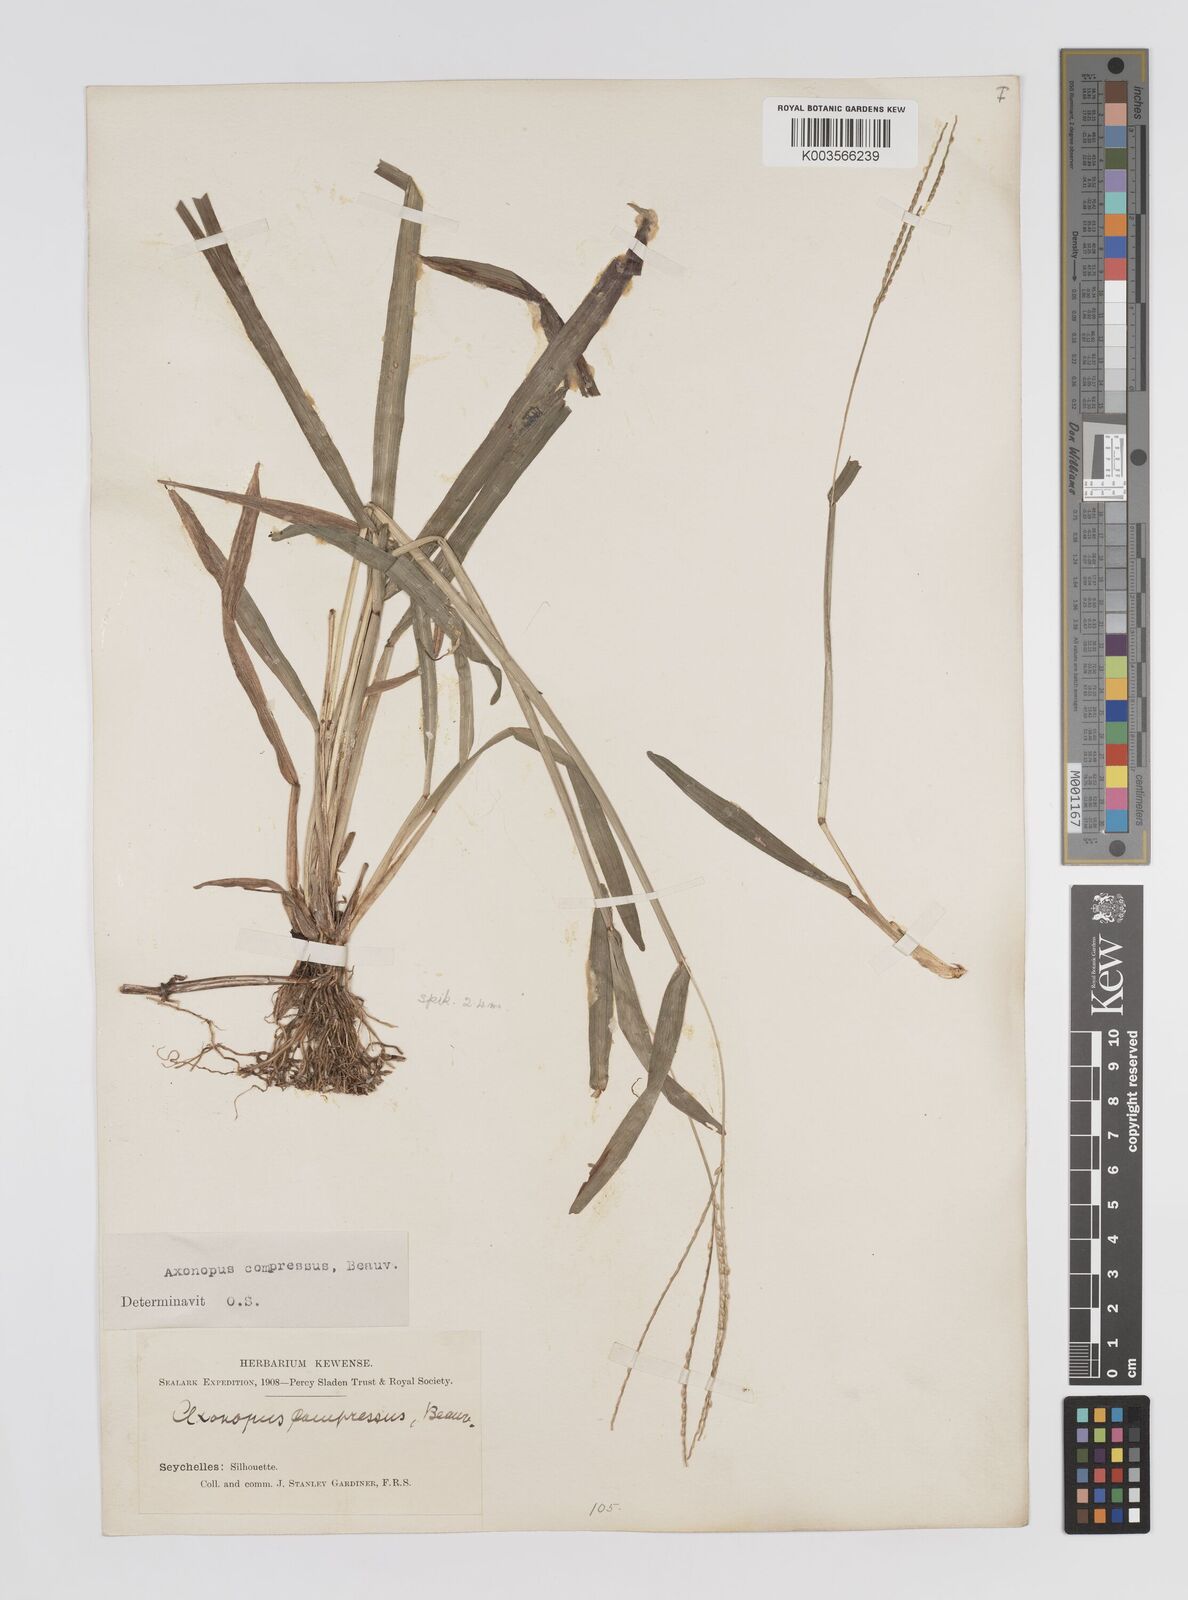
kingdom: Plantae
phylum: Tracheophyta
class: Liliopsida
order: Poales
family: Poaceae
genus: Axonopus
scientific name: Axonopus compressus
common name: American carpet grass
